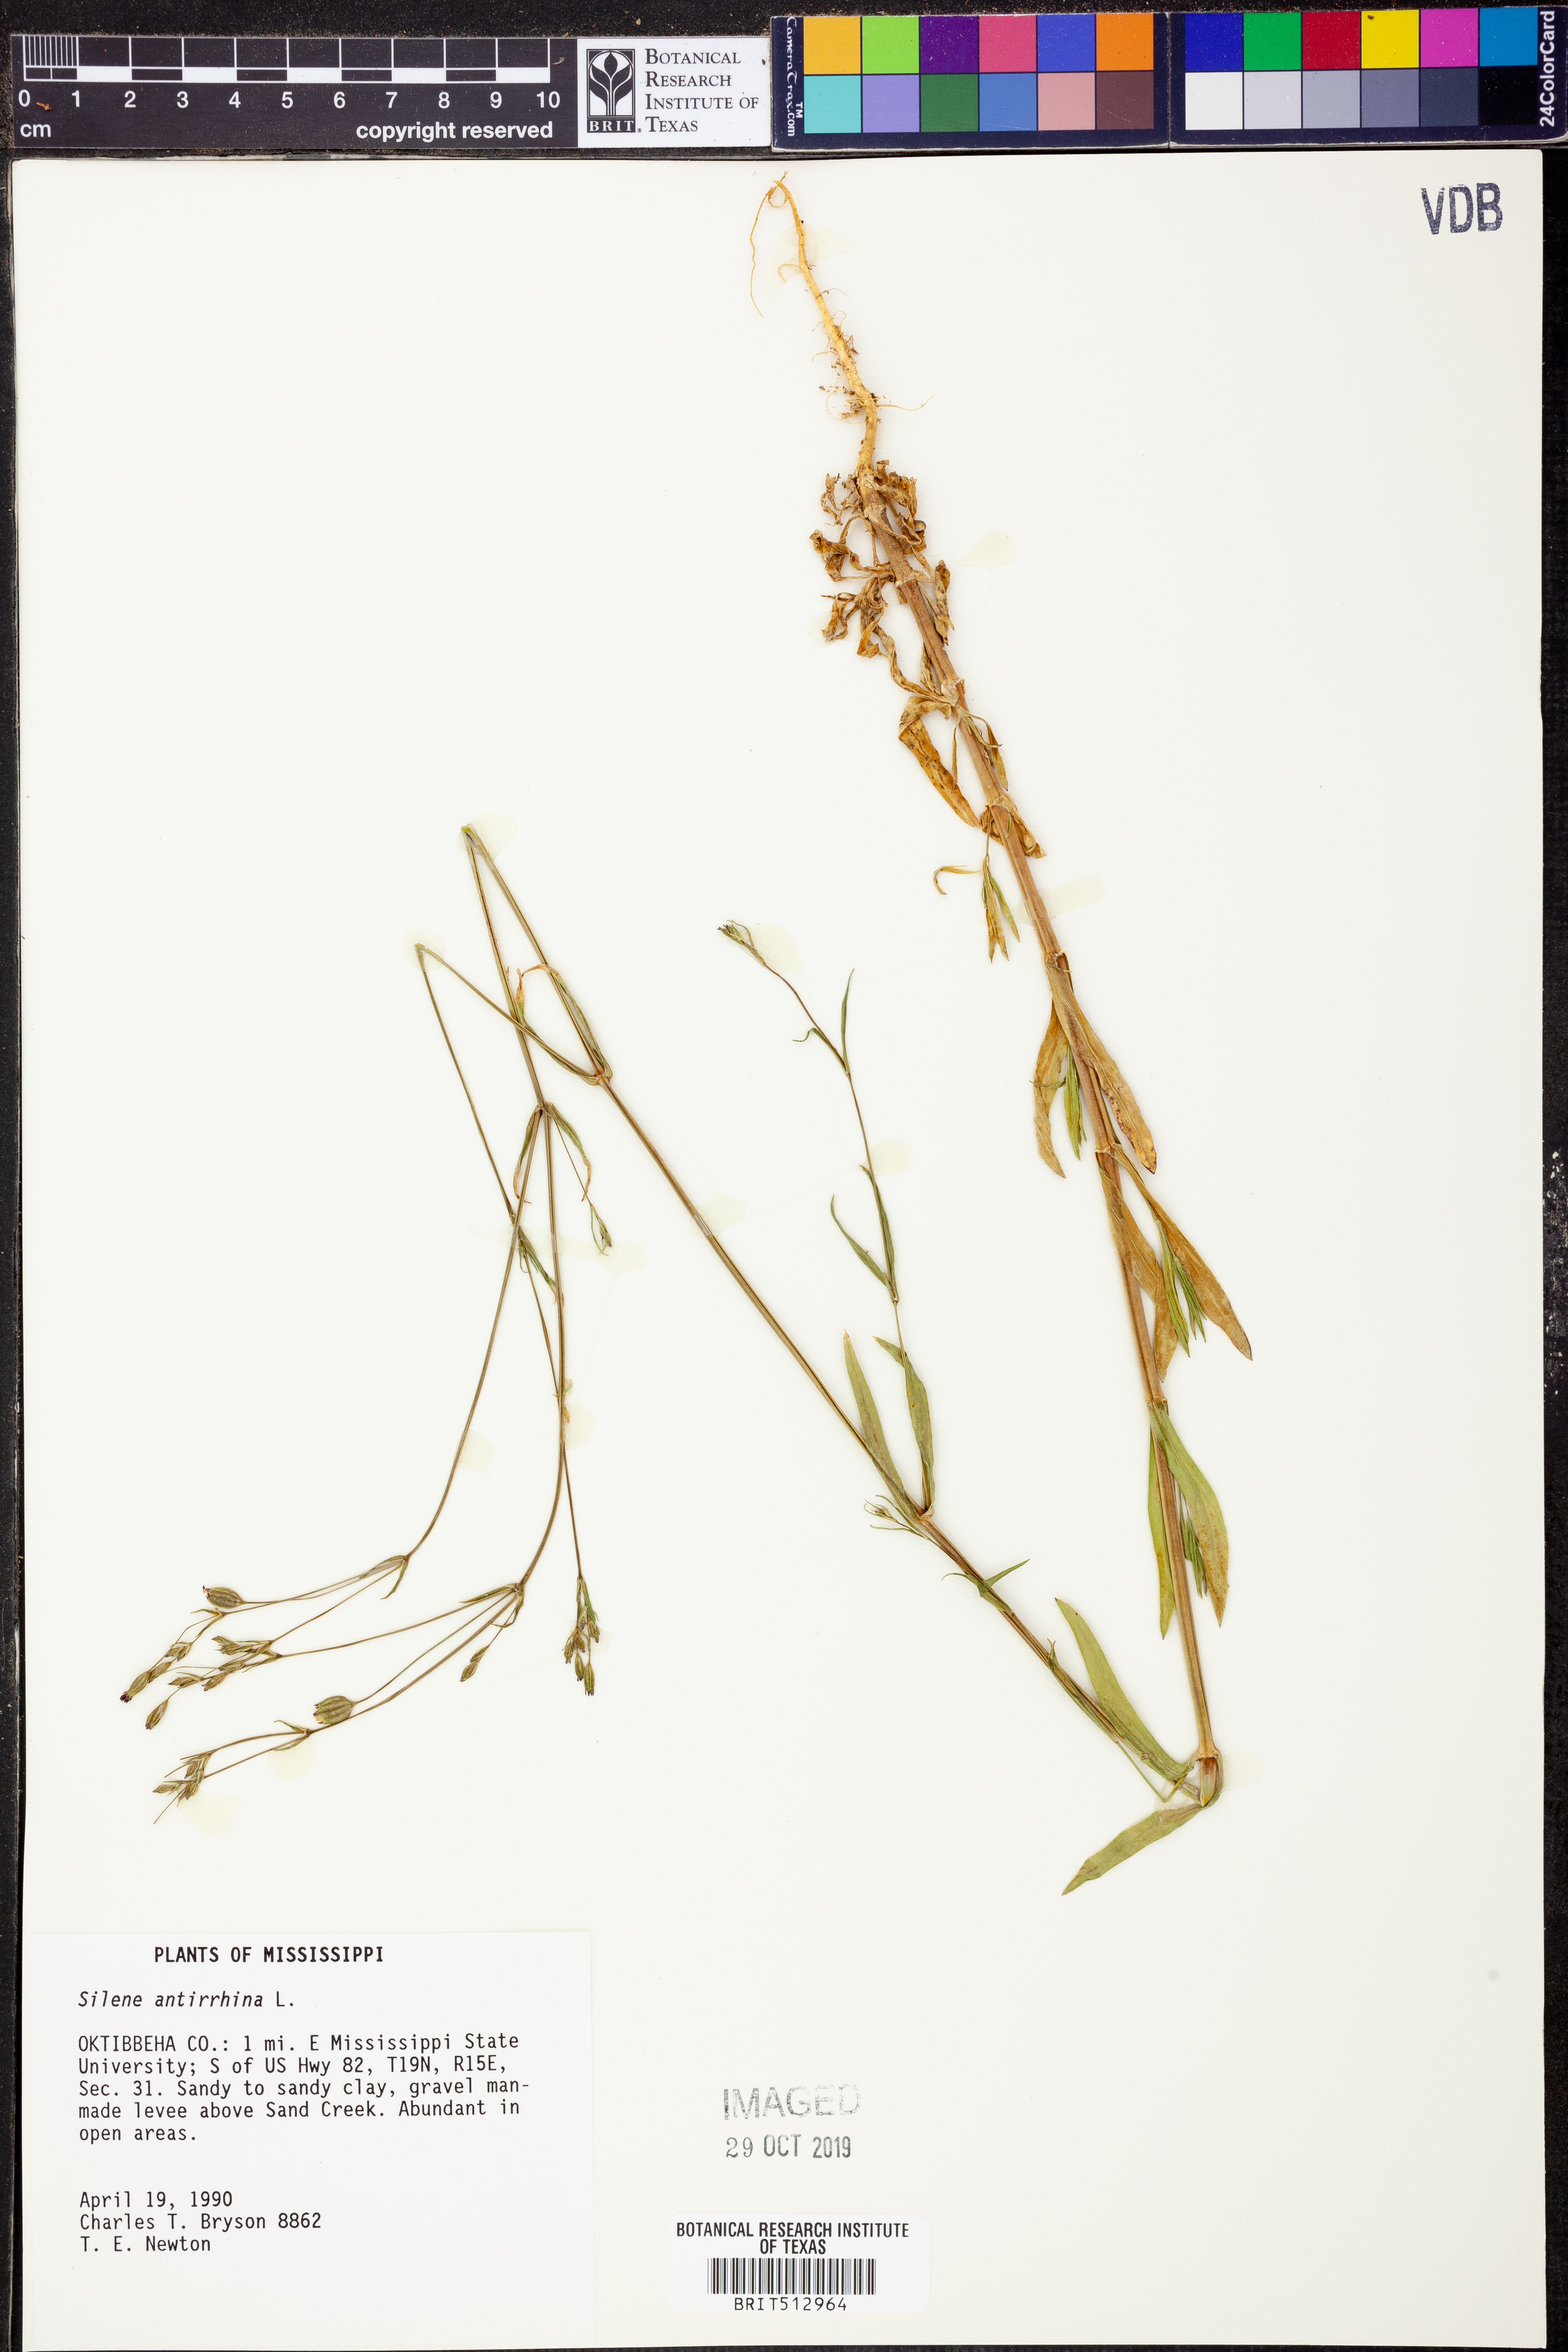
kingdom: Plantae
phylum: Tracheophyta
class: Magnoliopsida
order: Caryophyllales
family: Caryophyllaceae
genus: Silene
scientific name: Silene antirrhina
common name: Sleepy catchfly
